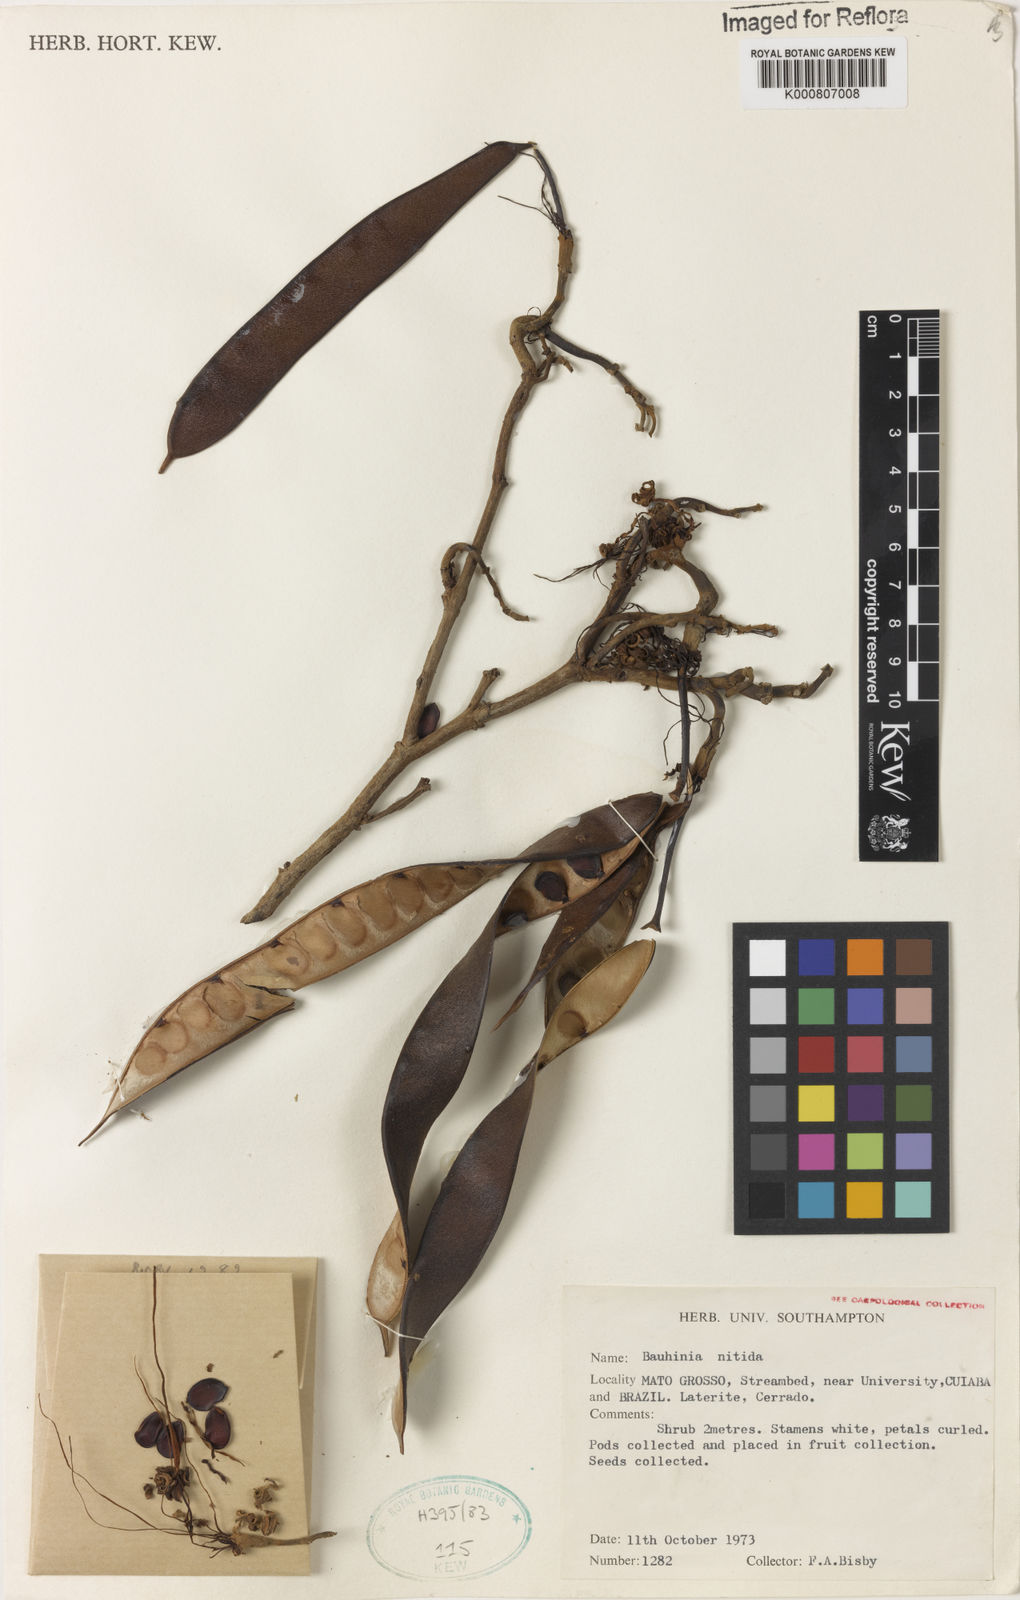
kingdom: Plantae
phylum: Tracheophyta
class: Magnoliopsida
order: Fabales
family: Fabaceae
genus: Bauhinia
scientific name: Bauhinia dubia
